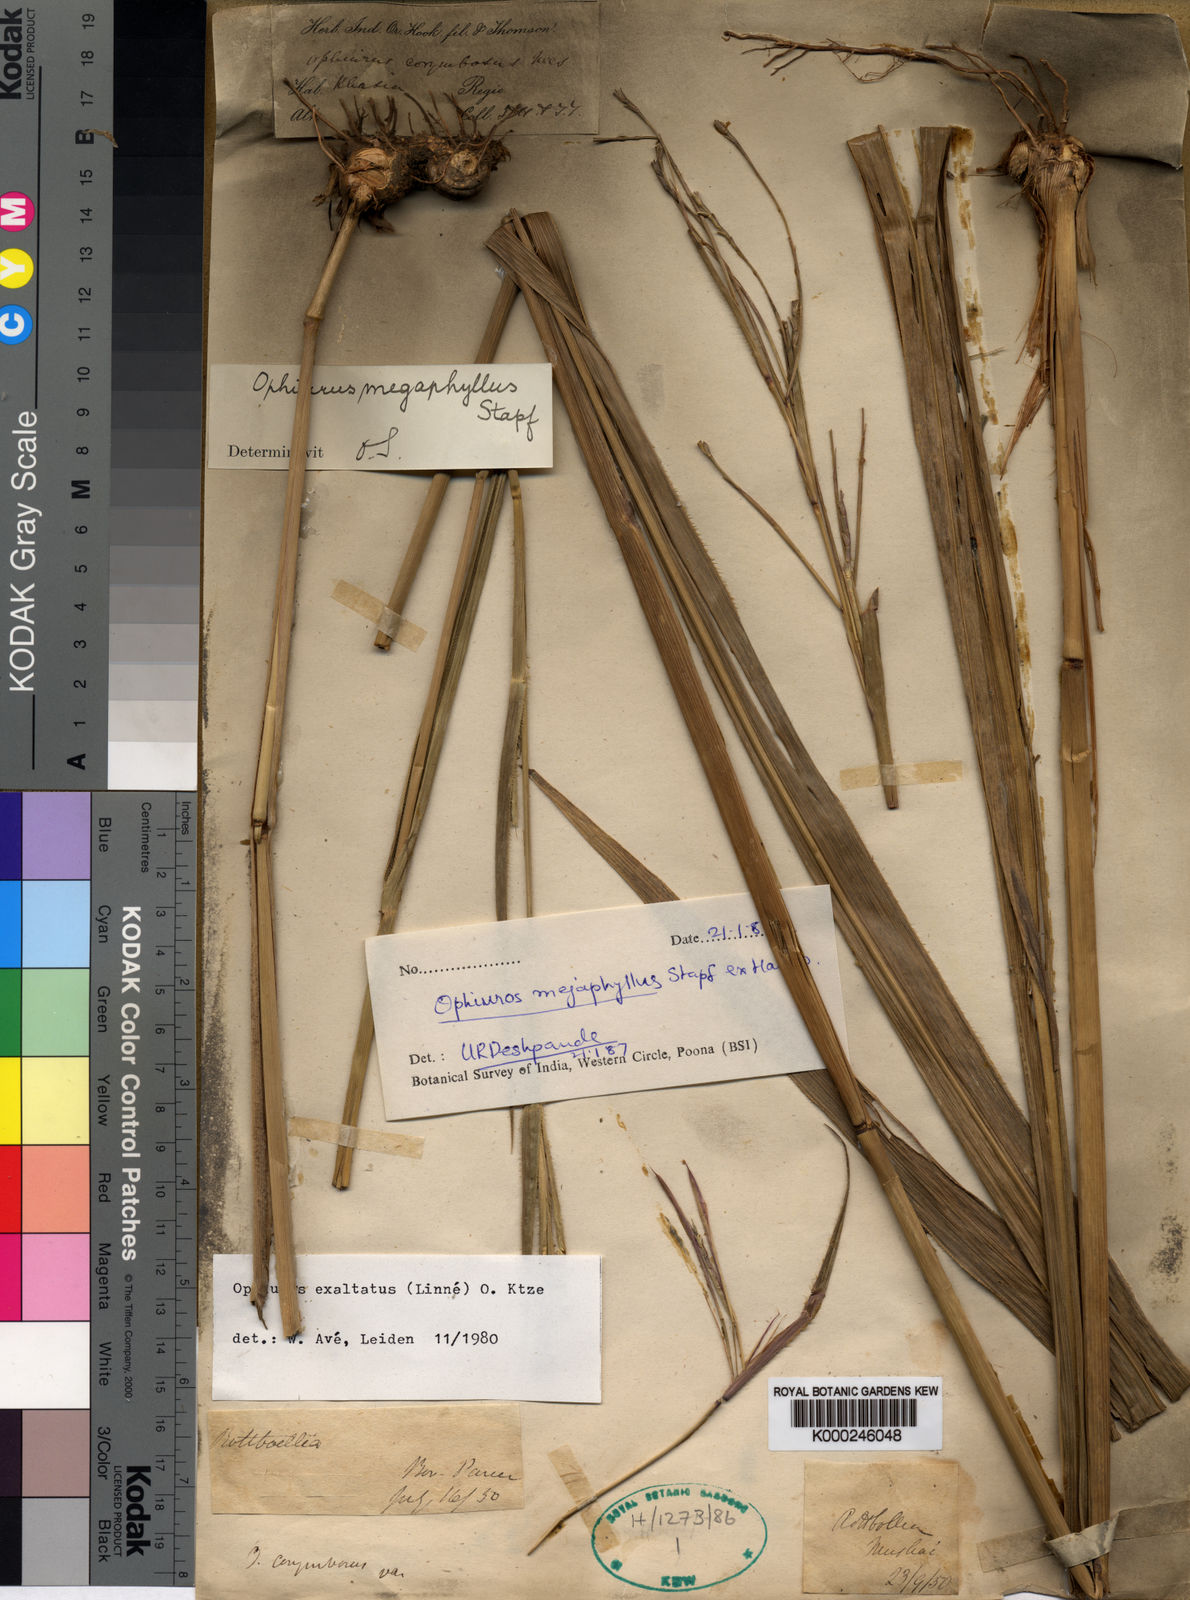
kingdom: Plantae
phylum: Tracheophyta
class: Liliopsida
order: Poales
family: Poaceae
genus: Ophiuros
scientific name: Ophiuros megaphyllus
